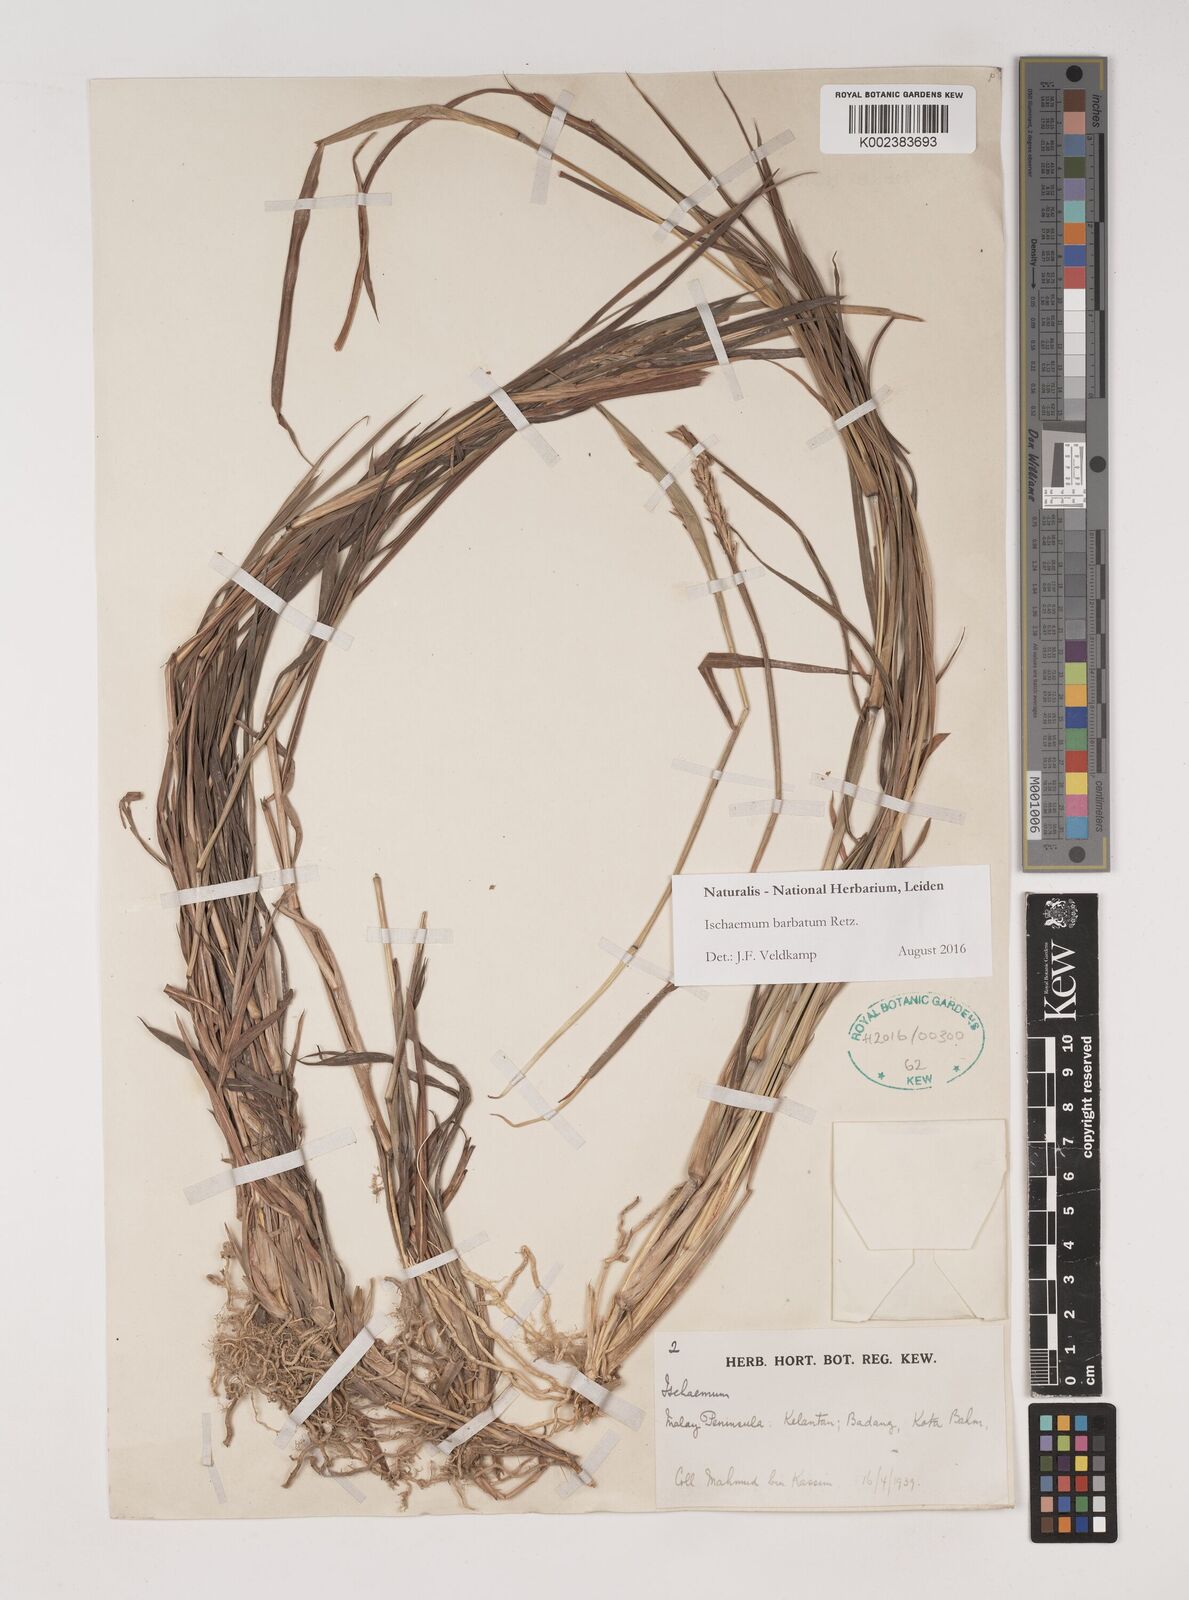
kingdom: Plantae
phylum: Tracheophyta
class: Liliopsida
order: Poales
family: Poaceae
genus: Ischaemum
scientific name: Ischaemum barbatum
